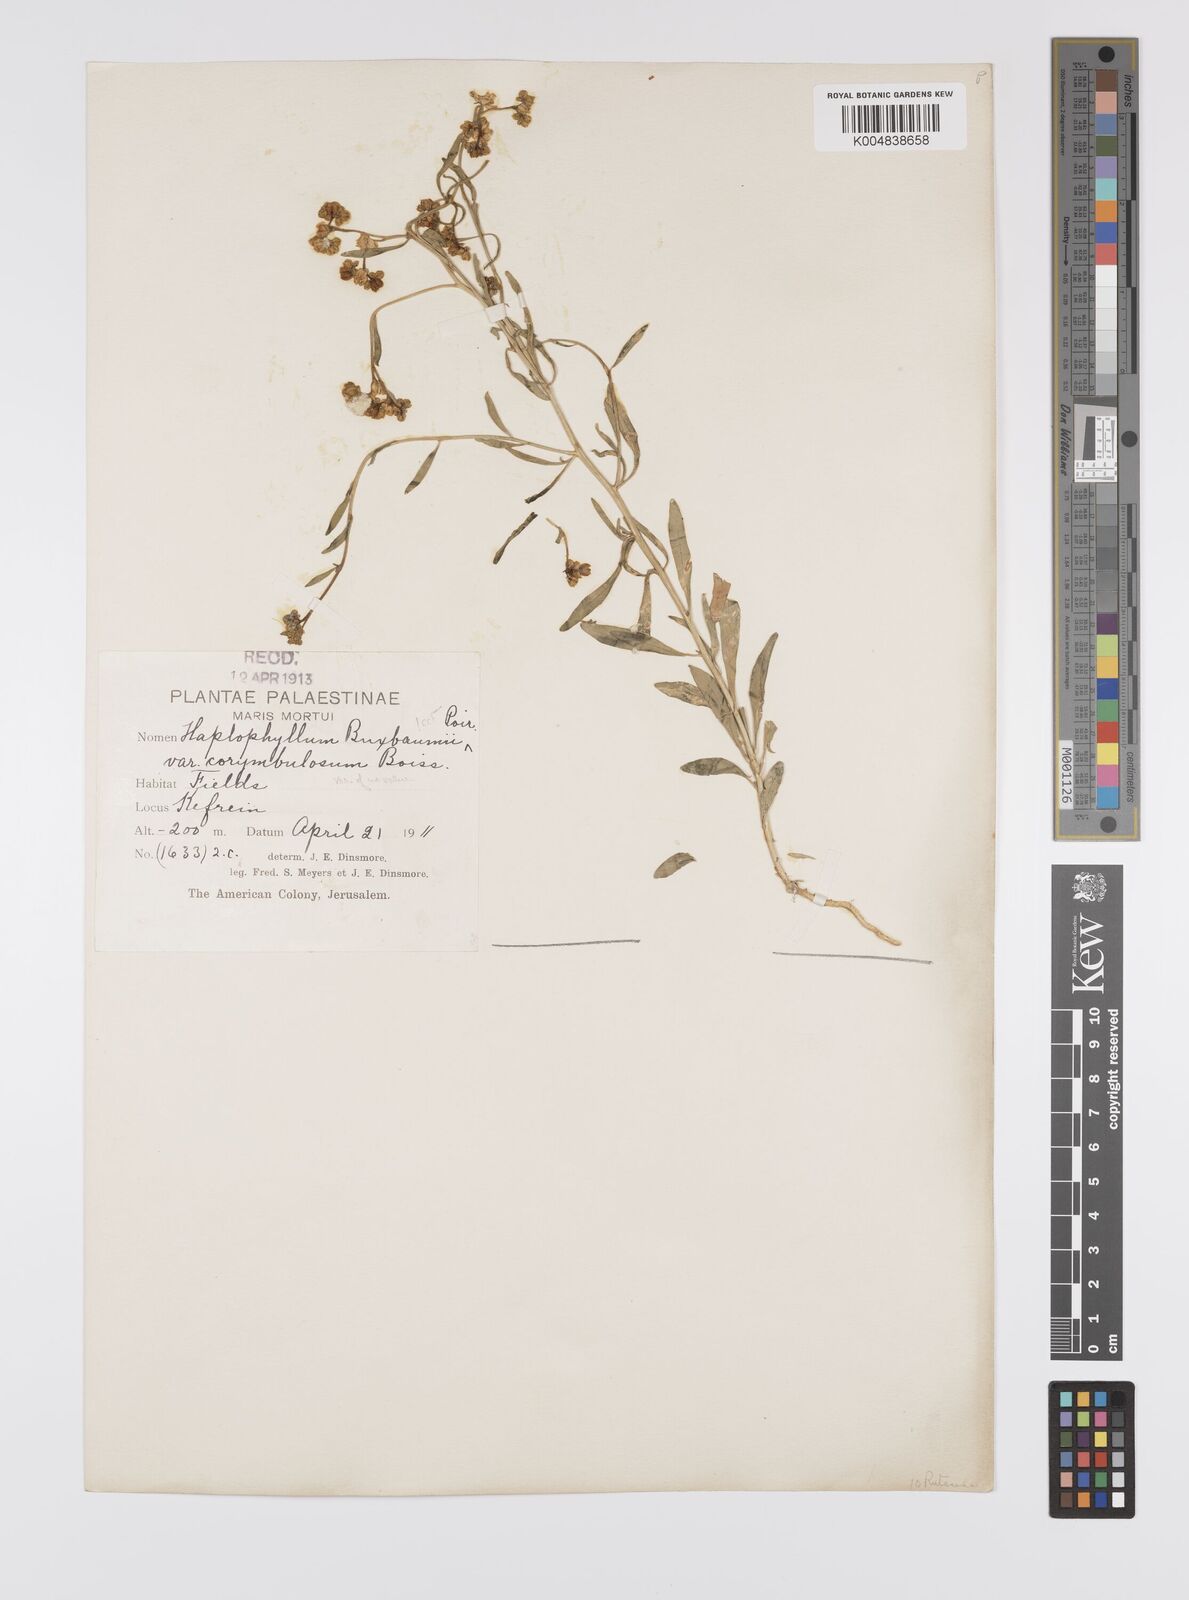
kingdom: Plantae
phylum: Tracheophyta
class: Magnoliopsida
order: Sapindales
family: Rutaceae
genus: Haplophyllum
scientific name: Haplophyllum
